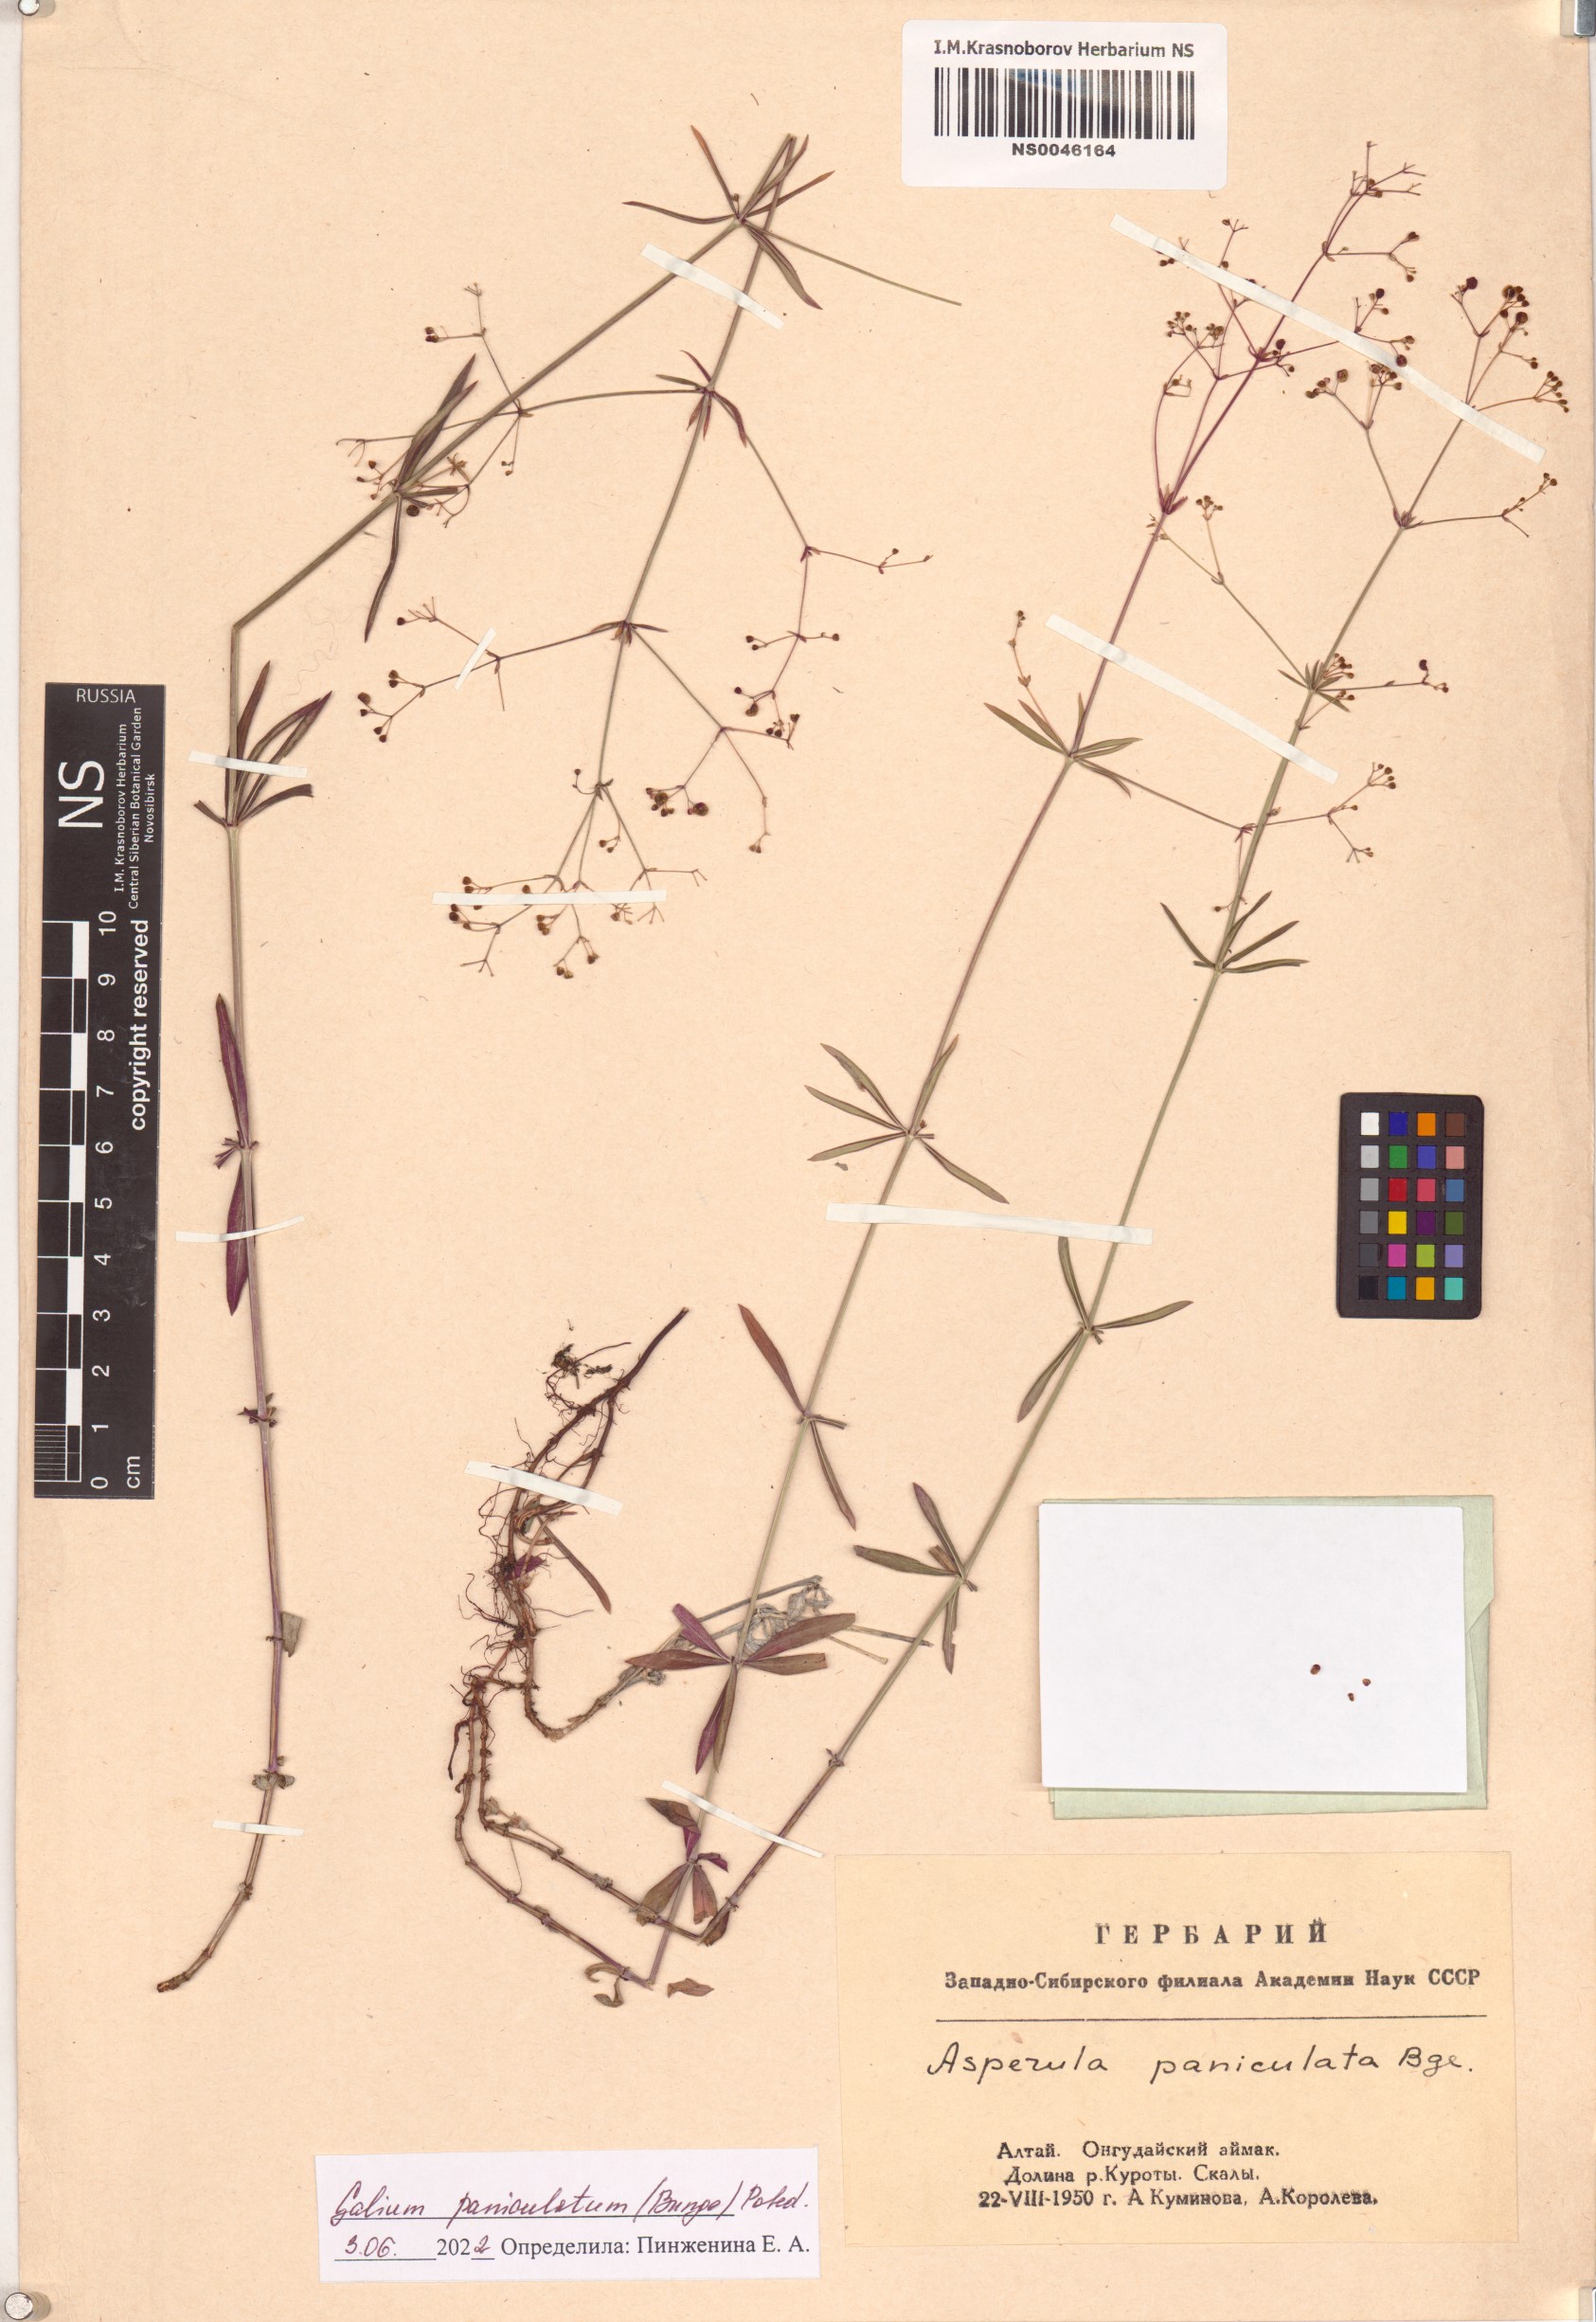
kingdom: Plantae
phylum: Tracheophyta
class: Magnoliopsida
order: Gentianales
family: Rubiaceae
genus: Galium
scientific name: Galium paniculatum
